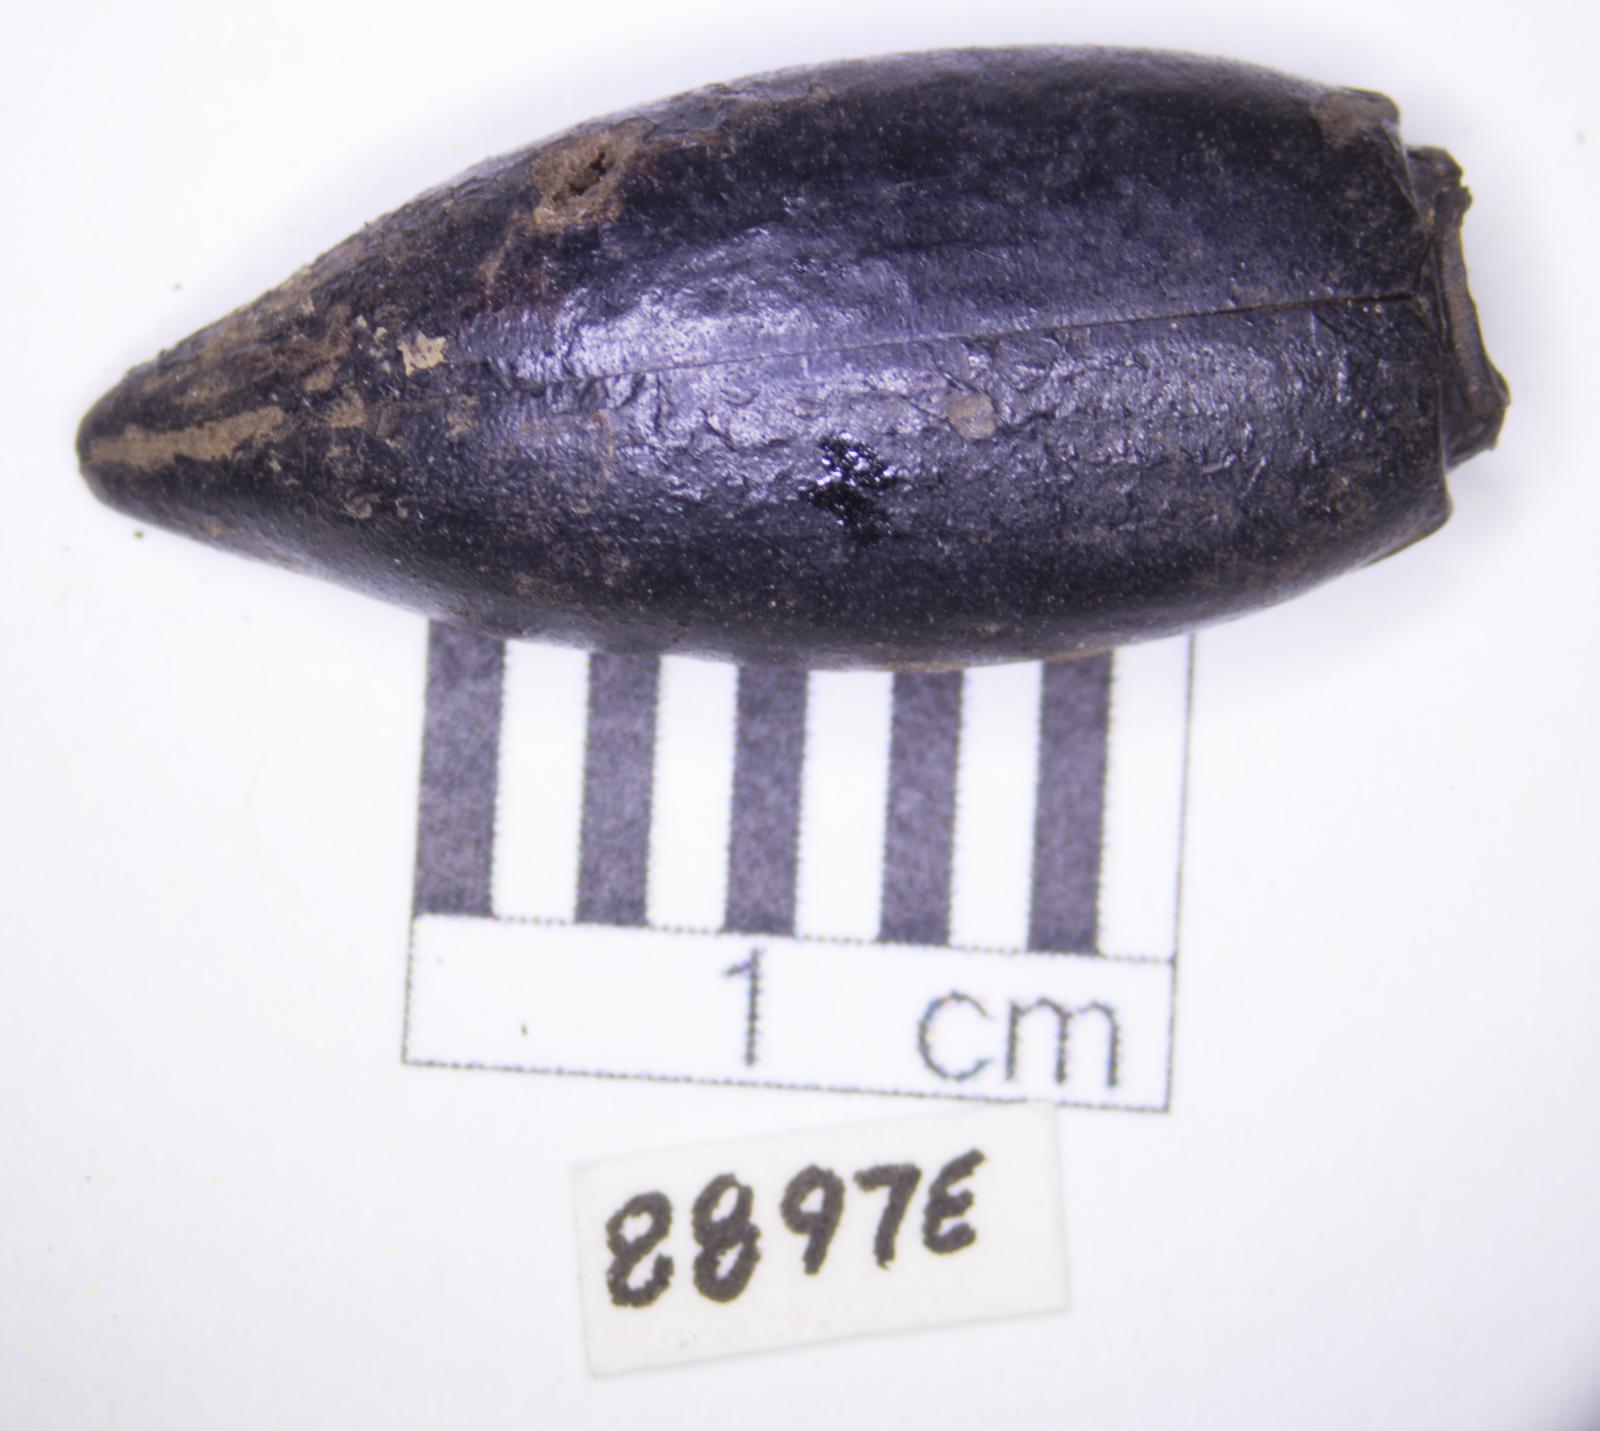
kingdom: Animalia
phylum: Arthropoda
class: Insecta
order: Coleoptera
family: Tenebrionidae
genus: Eleodes
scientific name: Eleodes acuticauda
